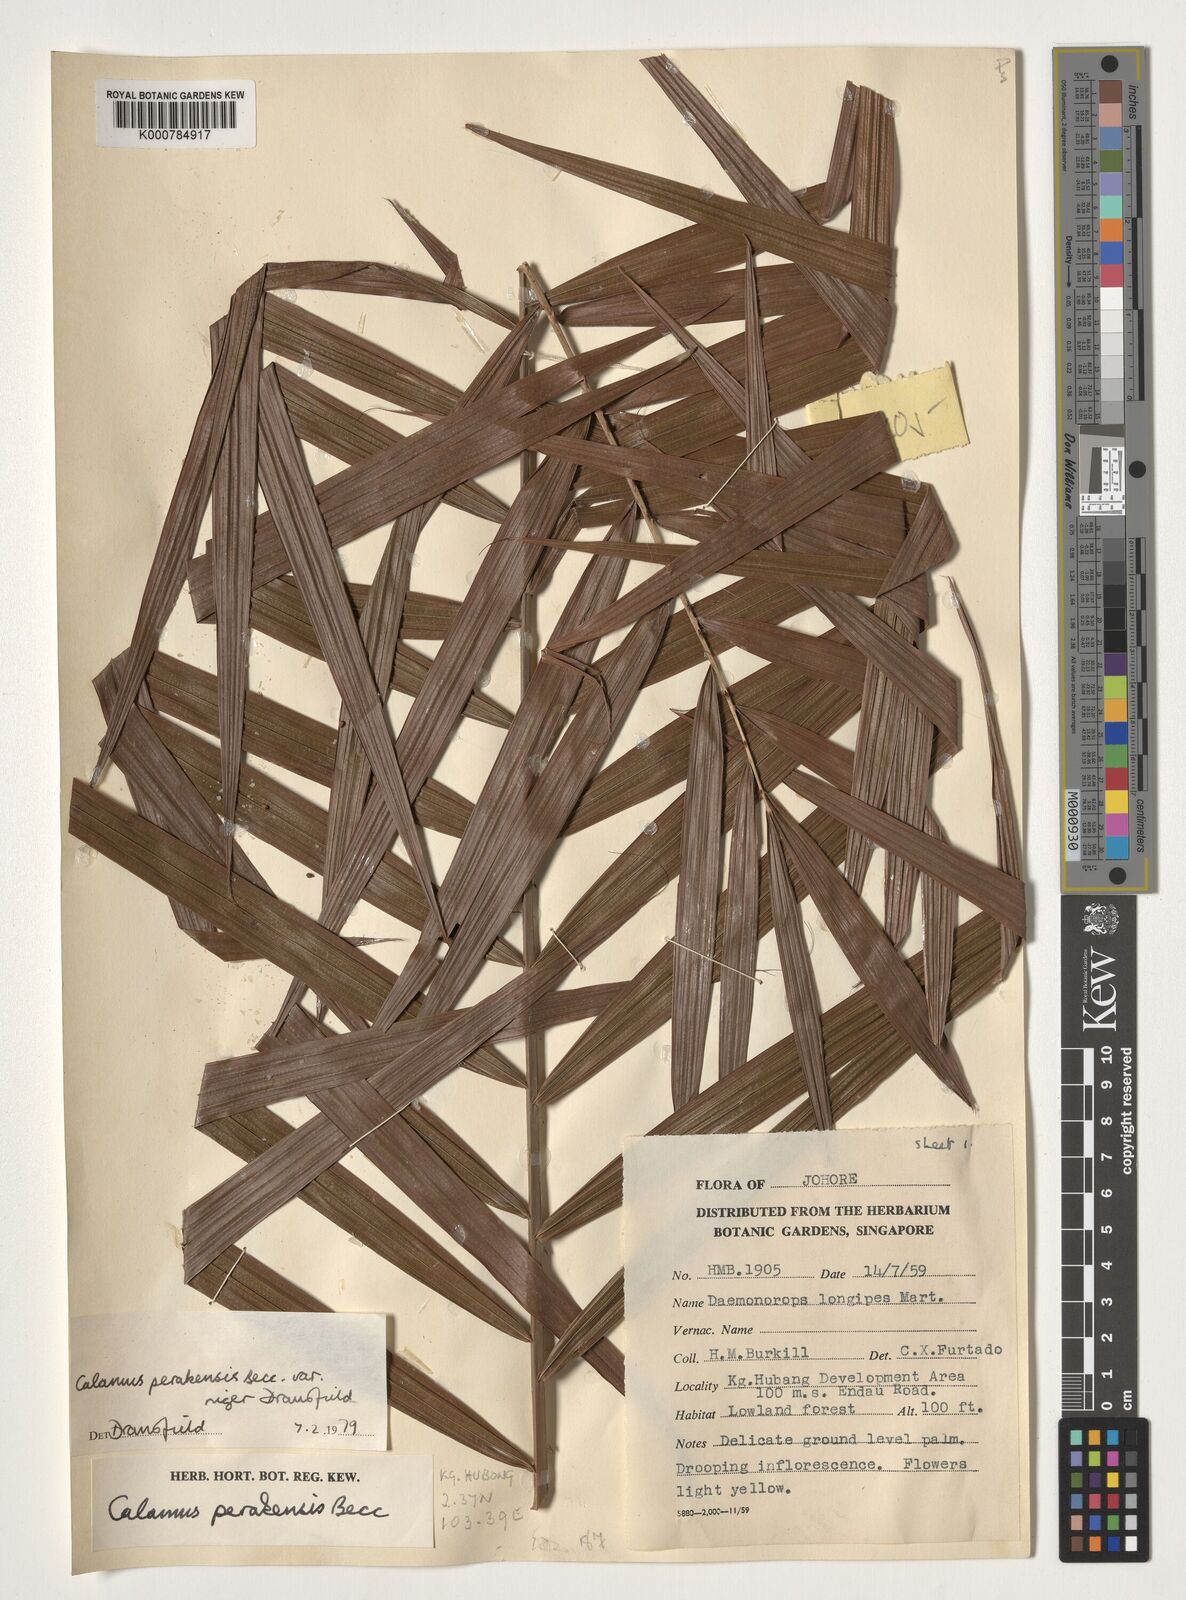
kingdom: Plantae
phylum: Tracheophyta
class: Liliopsida
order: Arecales
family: Arecaceae
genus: Calamus
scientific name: Calamus perakensis
